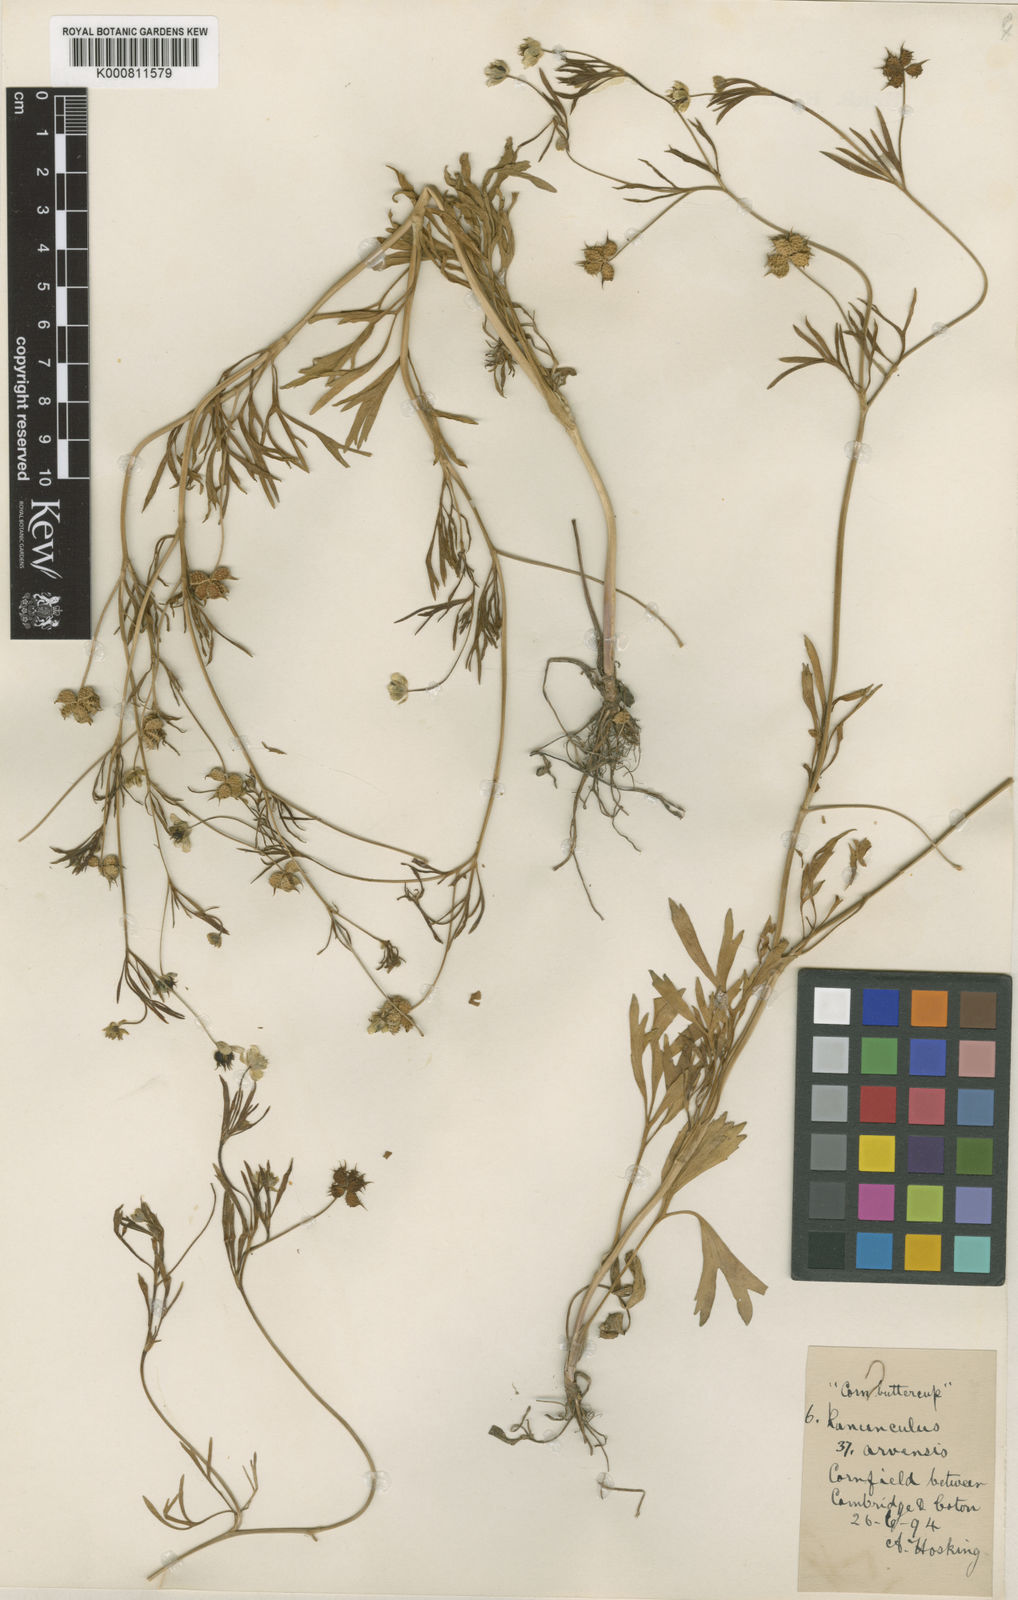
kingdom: Plantae
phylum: Tracheophyta
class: Magnoliopsida
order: Ranunculales
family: Ranunculaceae
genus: Ranunculus
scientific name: Ranunculus arvensis
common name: Corn buttercup
